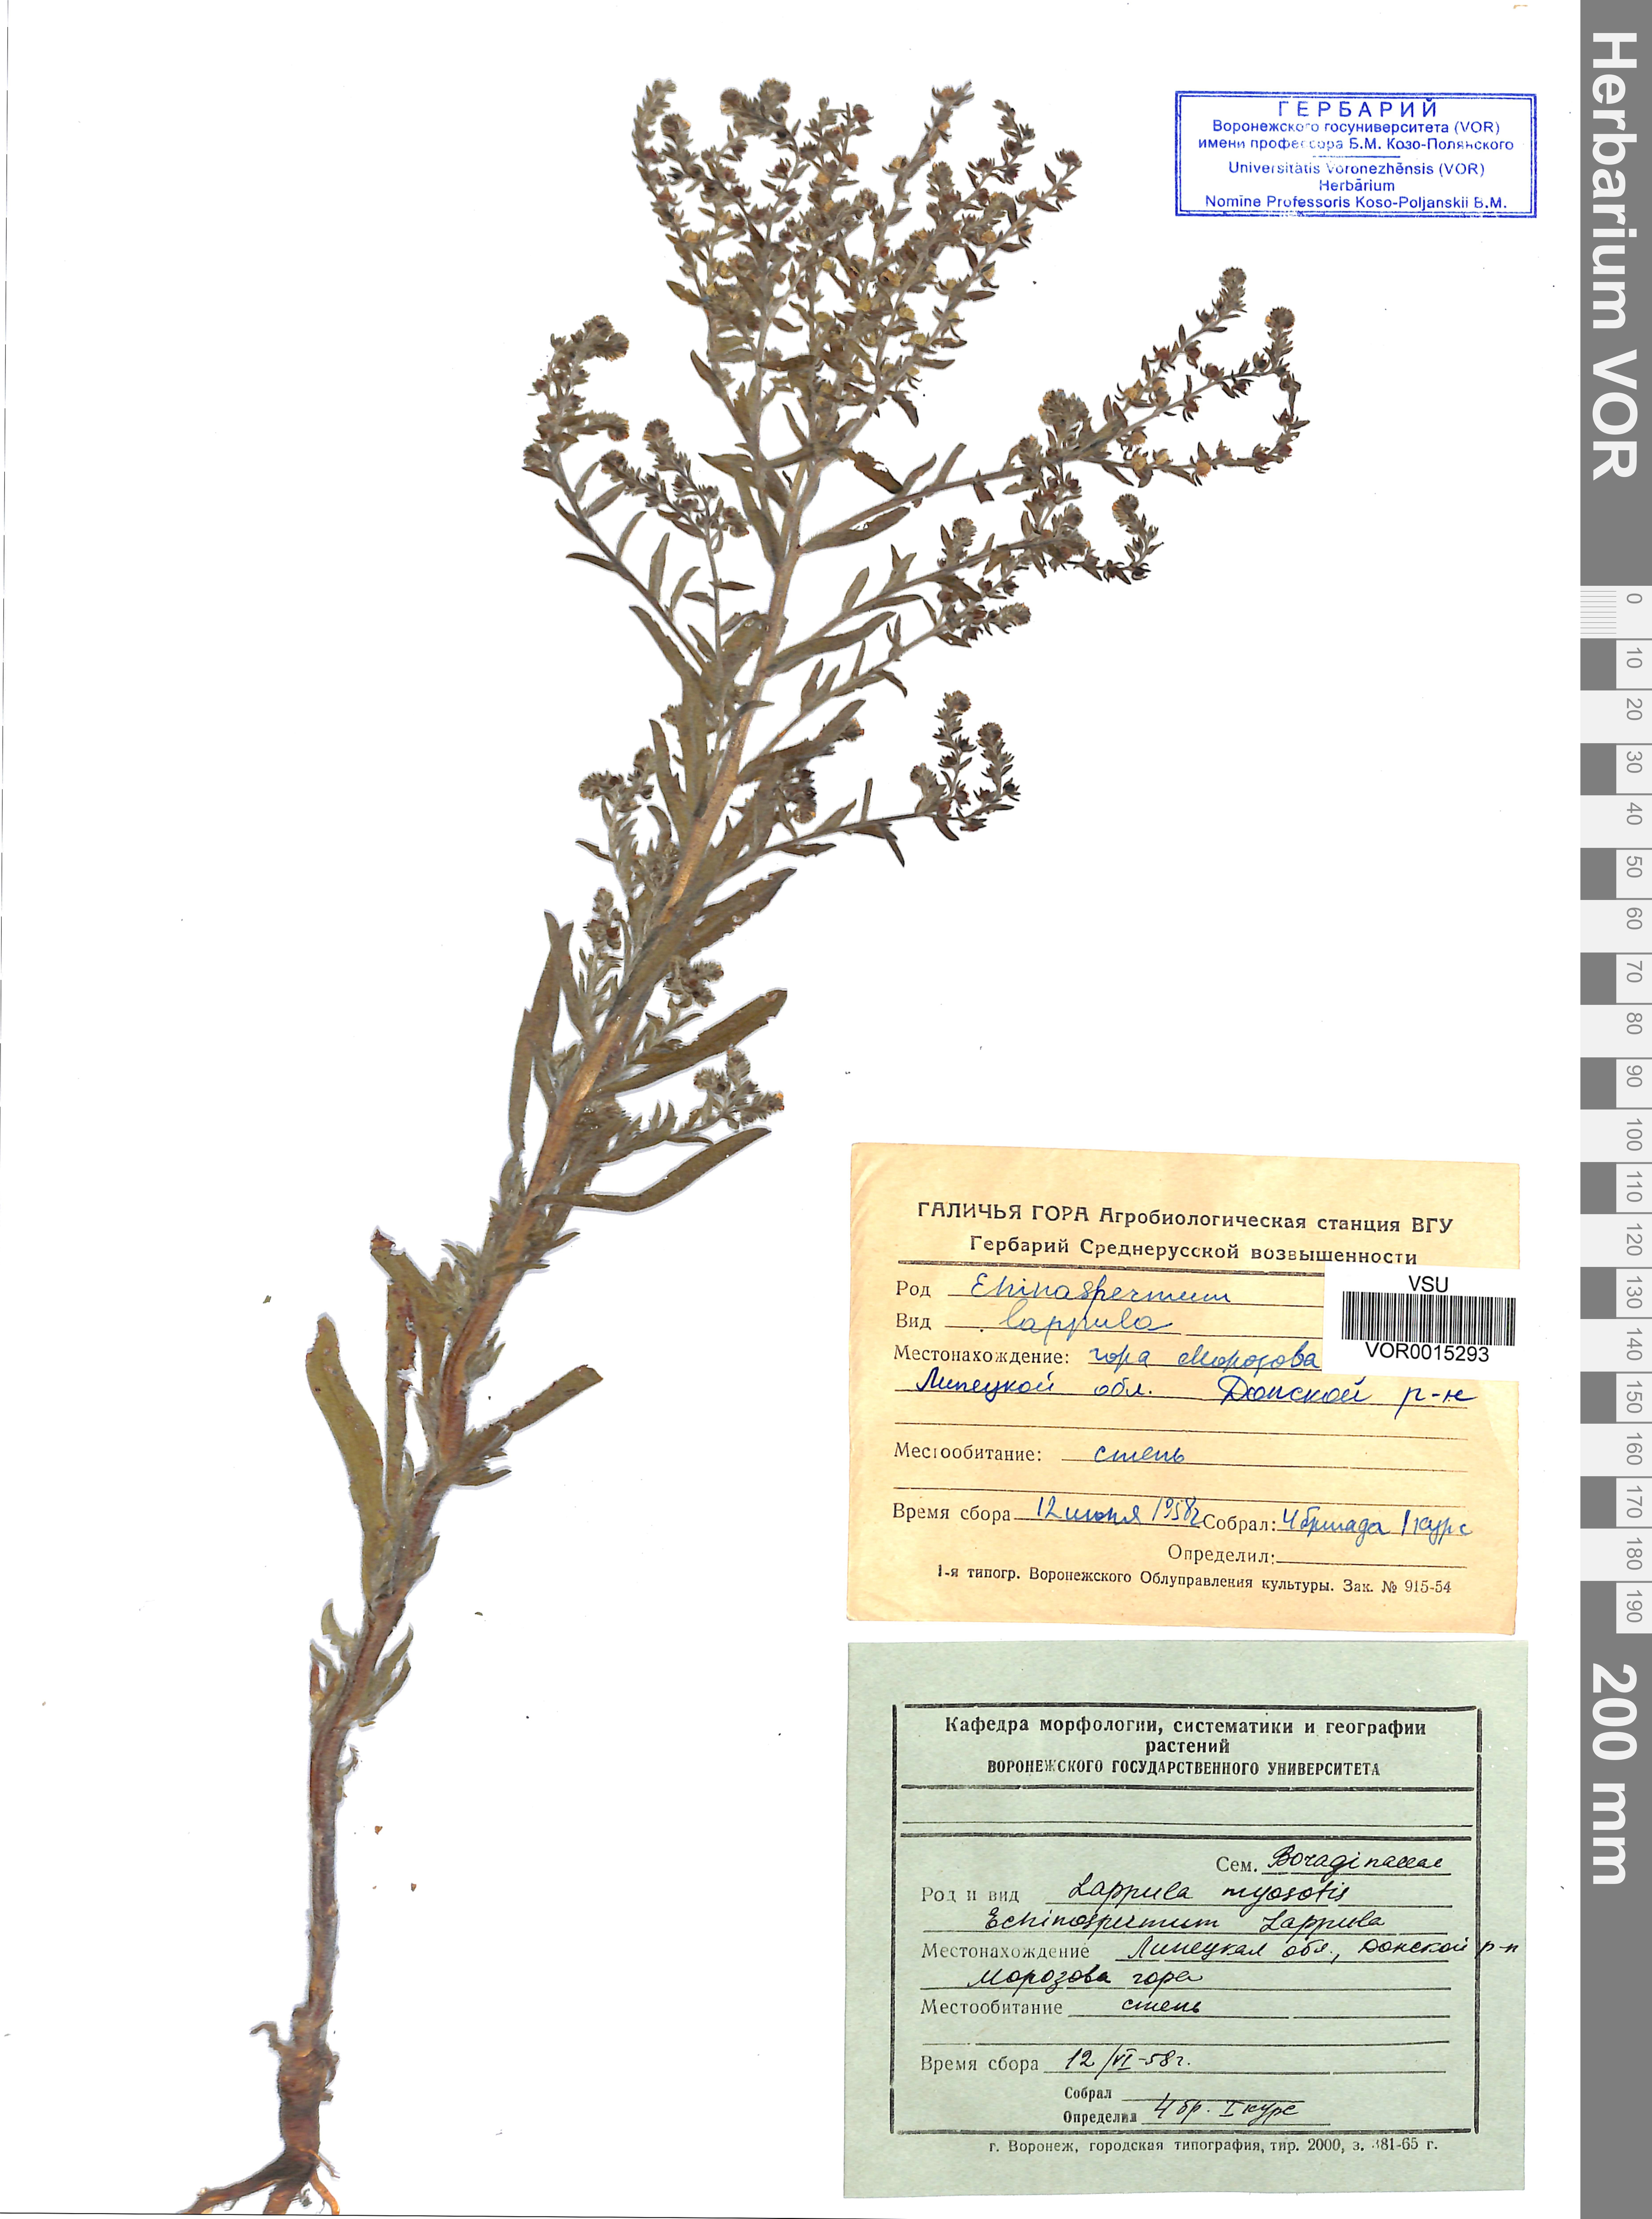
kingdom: Plantae
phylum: Tracheophyta
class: Magnoliopsida
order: Boraginales
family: Boraginaceae
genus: Lappula
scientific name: Lappula squarrosa
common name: European stickseed
